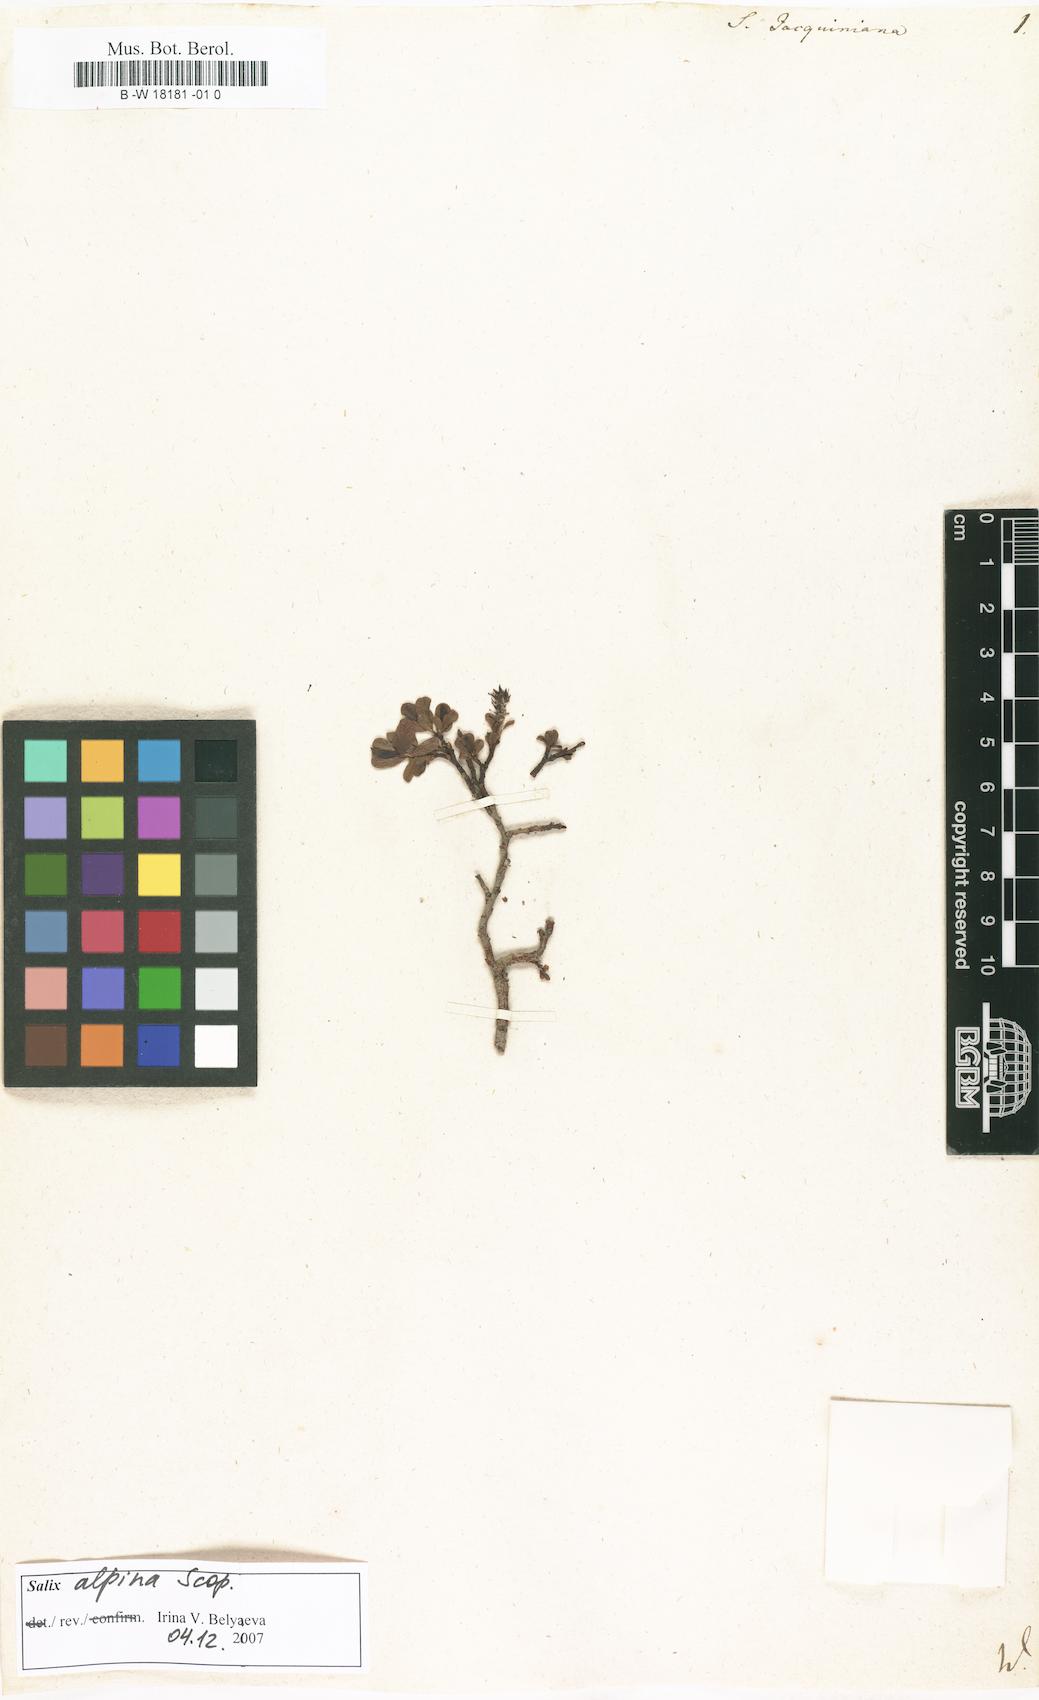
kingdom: Plantae
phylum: Tracheophyta
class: Magnoliopsida
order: Malpighiales
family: Salicaceae
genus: Salix
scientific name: Salix alpina
